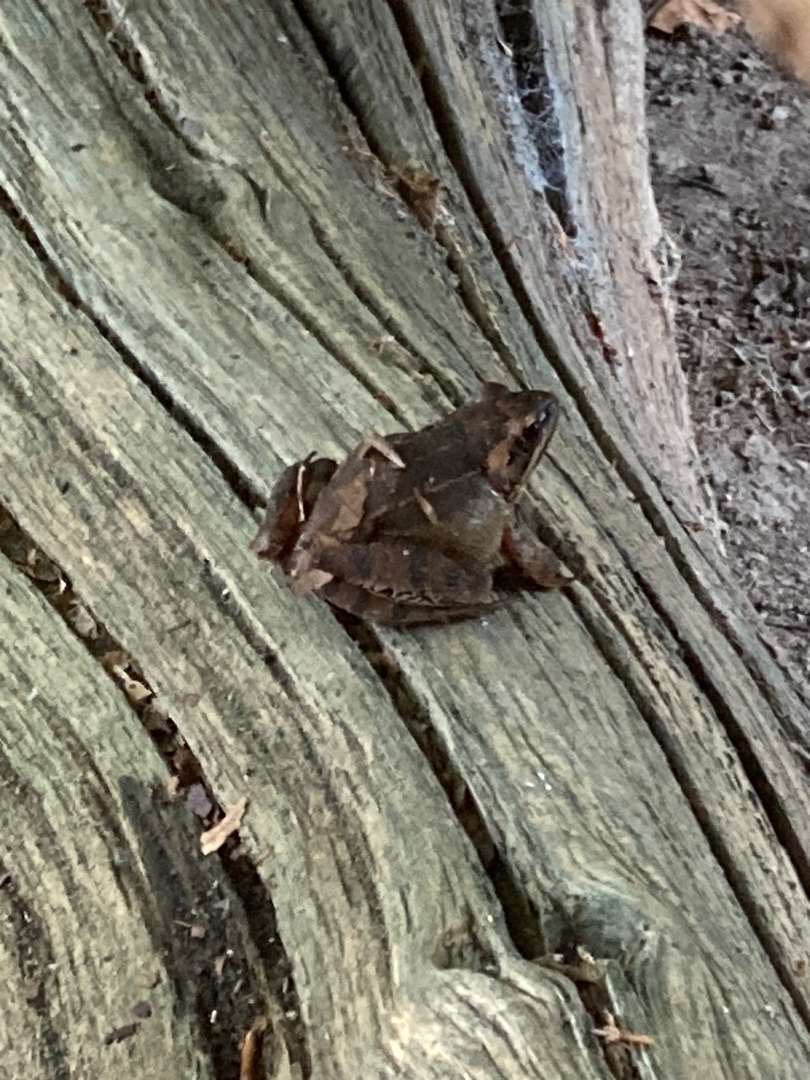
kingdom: Animalia
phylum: Chordata
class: Amphibia
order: Anura
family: Ranidae
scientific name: Ranidae
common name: Egentlige frøer
